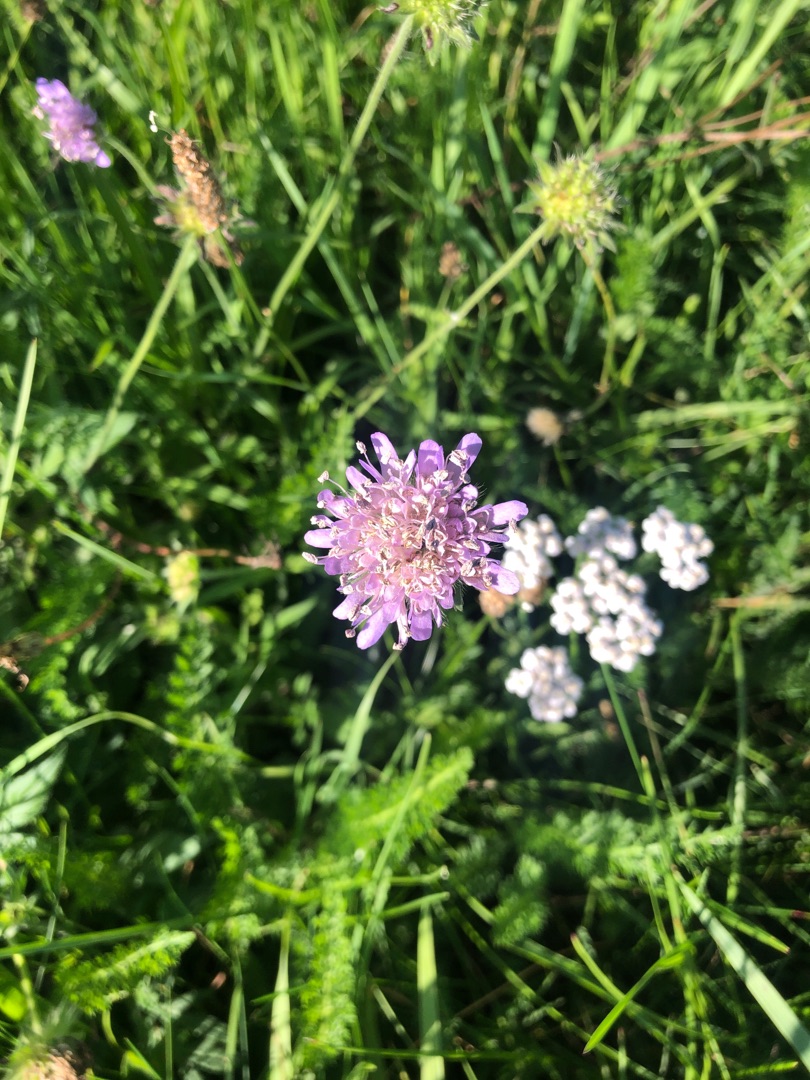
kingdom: Plantae
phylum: Tracheophyta
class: Magnoliopsida
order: Dipsacales
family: Caprifoliaceae
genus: Knautia
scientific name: Knautia arvensis
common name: Blåhat
